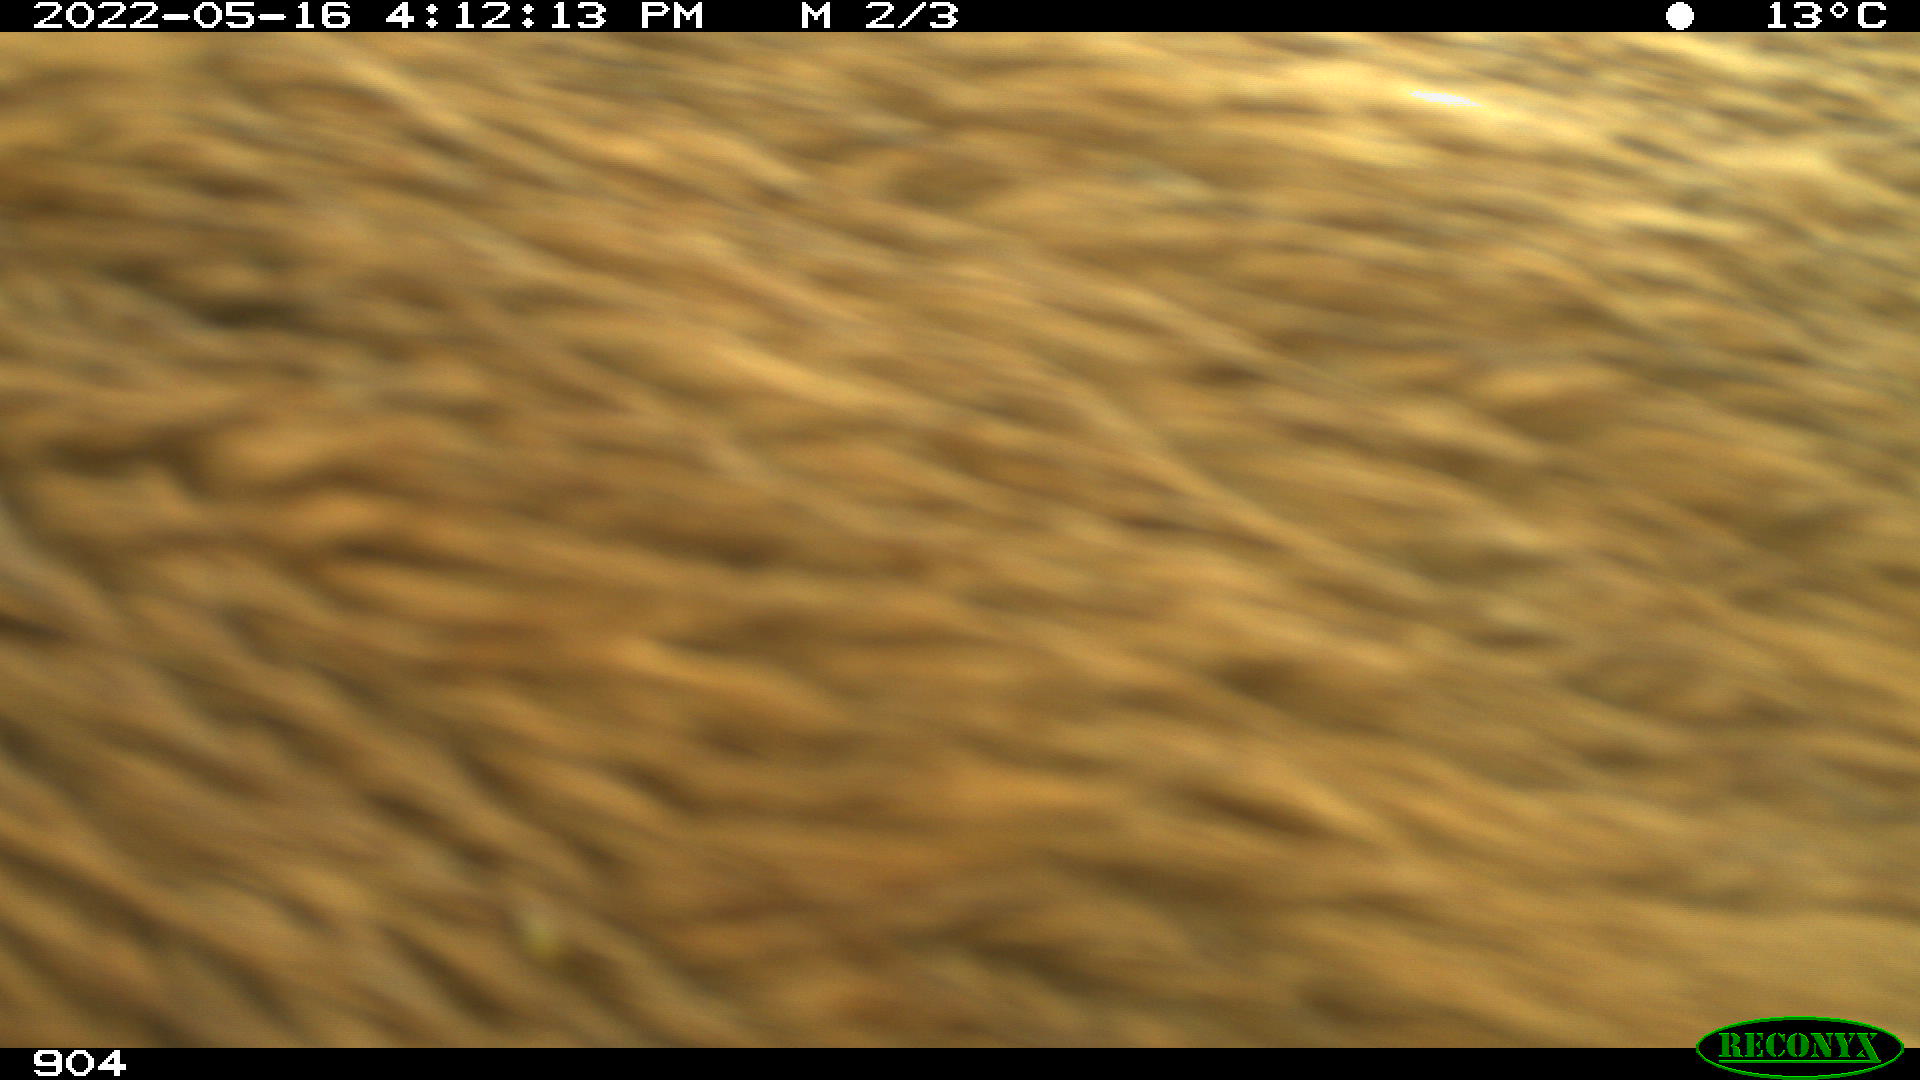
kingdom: Animalia
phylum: Chordata
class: Mammalia
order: Artiodactyla
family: Bovidae
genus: Bos
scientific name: Bos taurus
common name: Domesticated cattle
